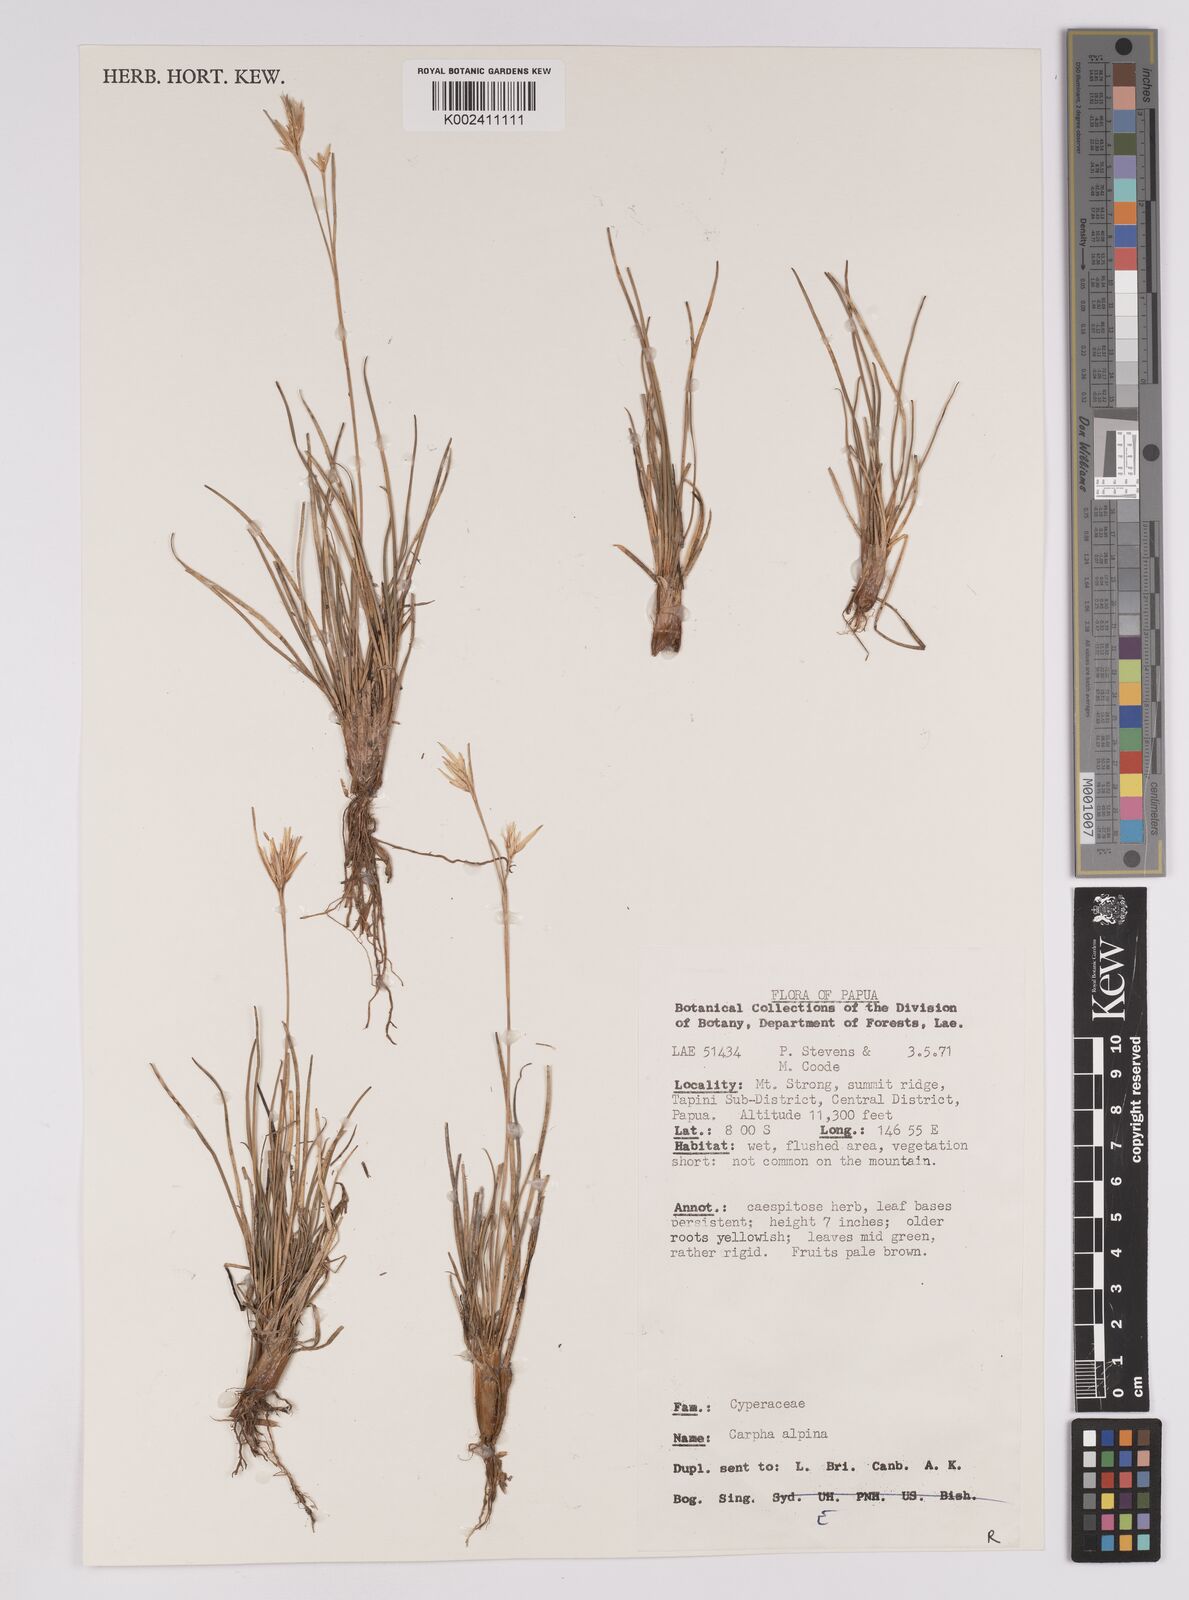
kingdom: Plantae
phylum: Tracheophyta
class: Liliopsida
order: Poales
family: Cyperaceae
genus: Carpha
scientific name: Carpha alpina
